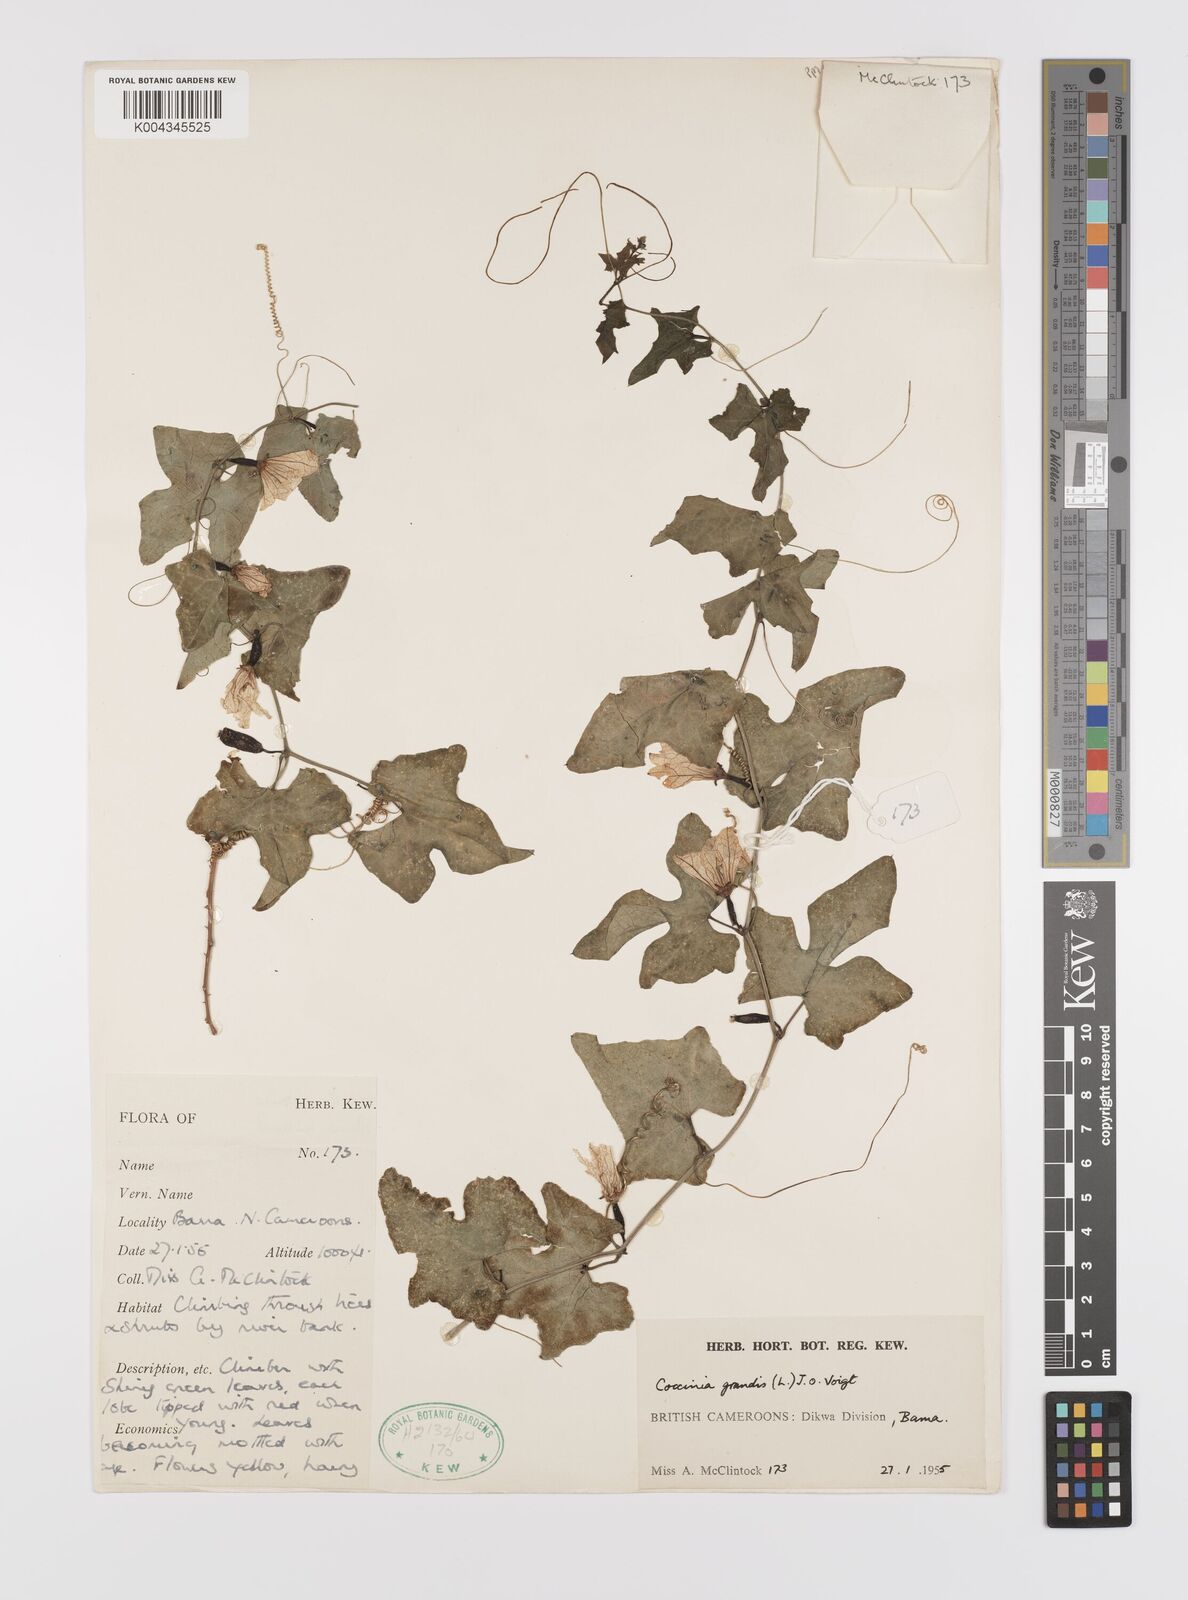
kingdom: Plantae
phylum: Tracheophyta
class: Magnoliopsida
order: Cucurbitales
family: Cucurbitaceae
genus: Coccinia
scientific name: Coccinia grandis
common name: Ivy gourd
